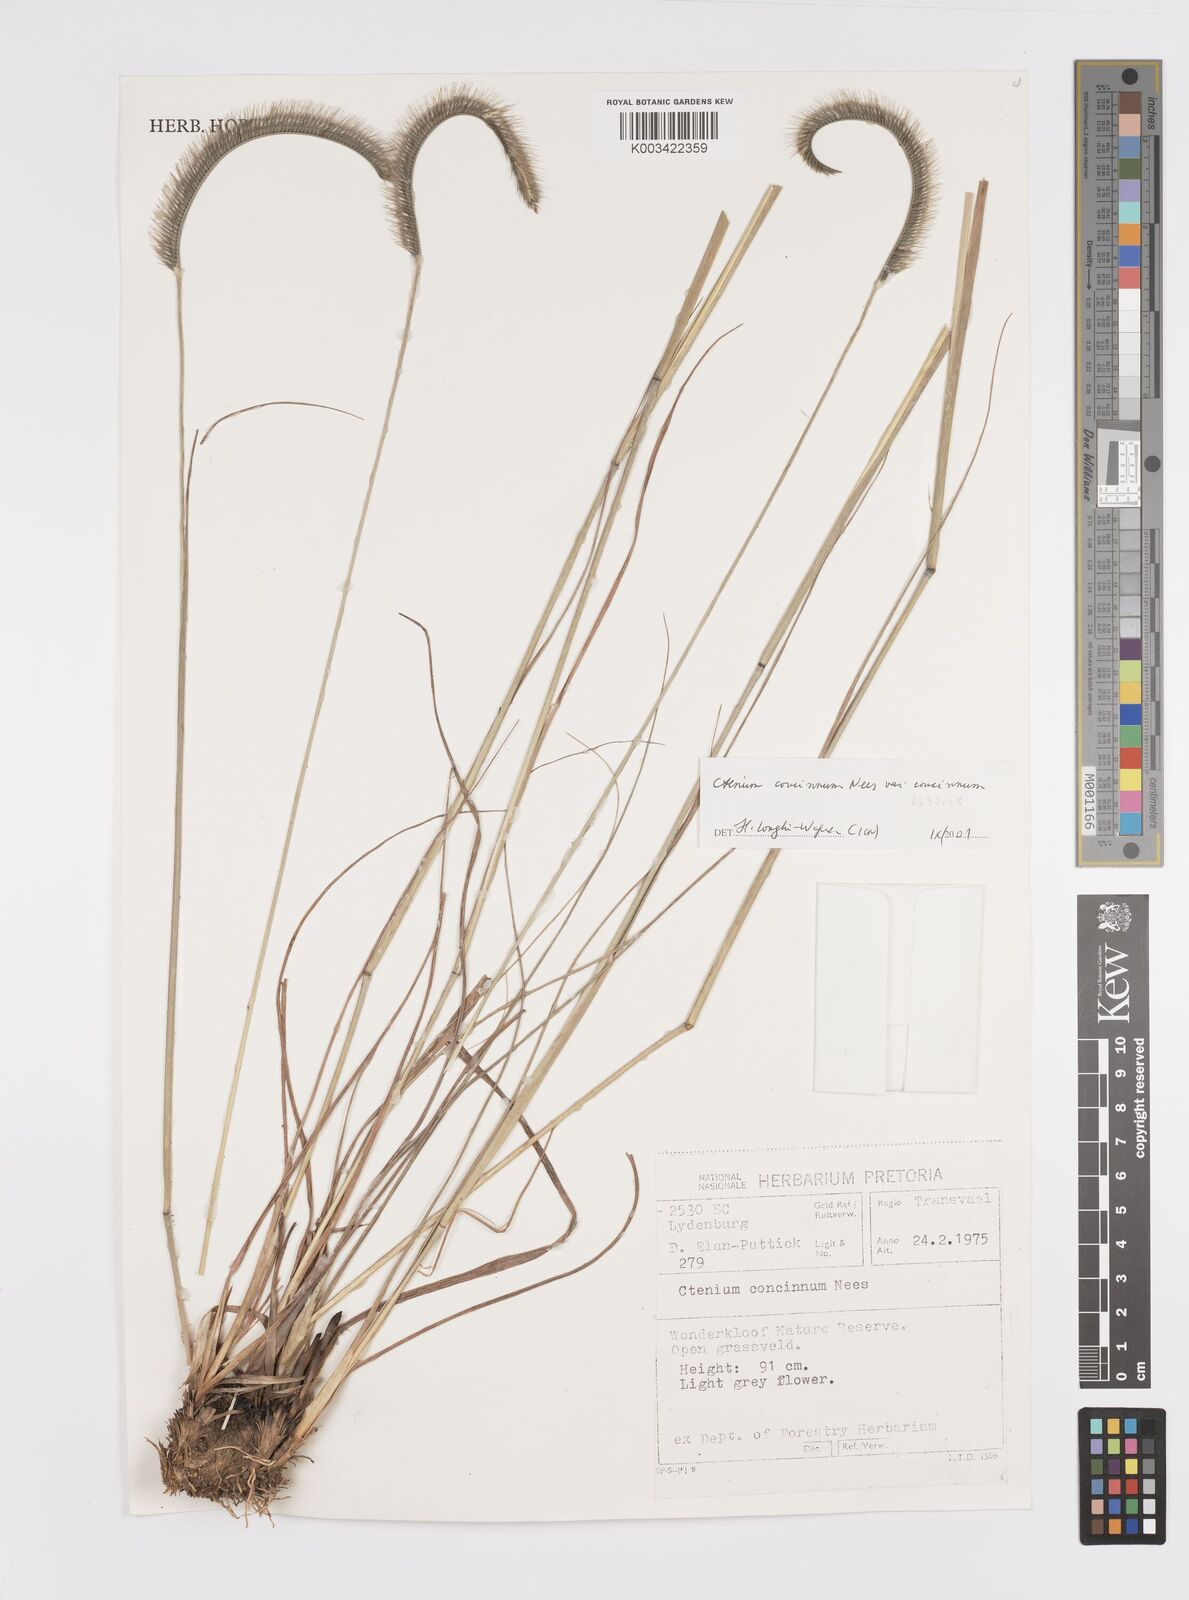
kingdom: Plantae
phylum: Tracheophyta
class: Liliopsida
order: Poales
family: Poaceae
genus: Ctenium
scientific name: Ctenium concinnum
